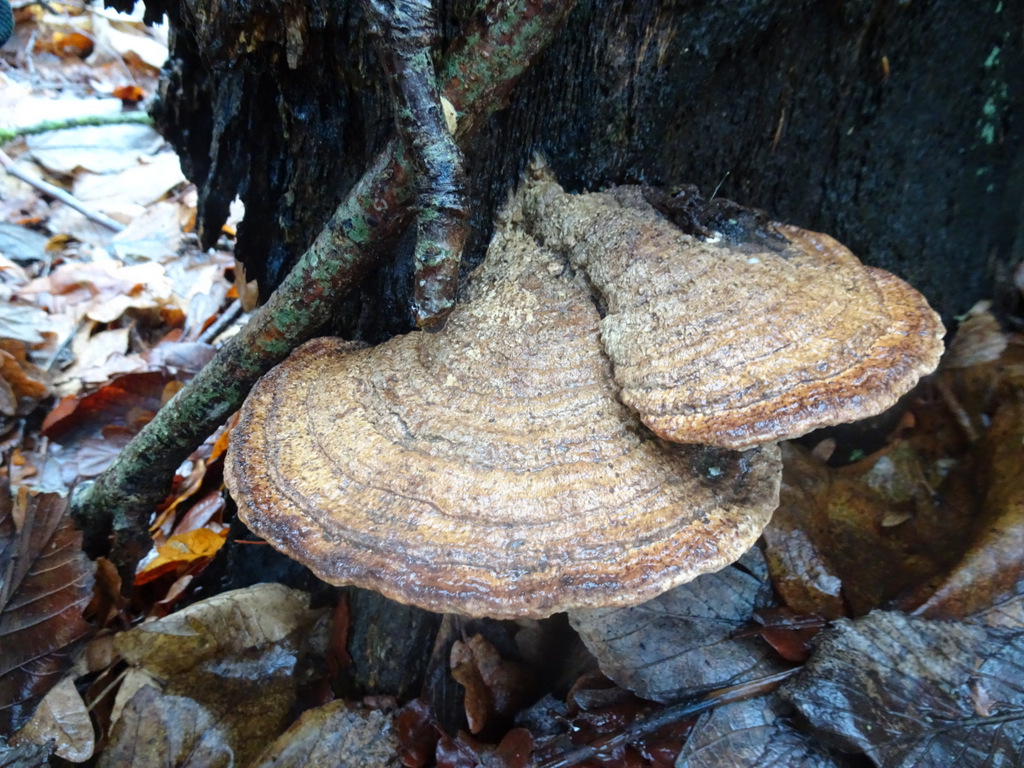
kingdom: Fungi
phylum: Basidiomycota
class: Agaricomycetes
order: Polyporales
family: Fomitopsidaceae
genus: Daedalea
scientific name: Daedalea quercina
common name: ege-labyrintsvamp
